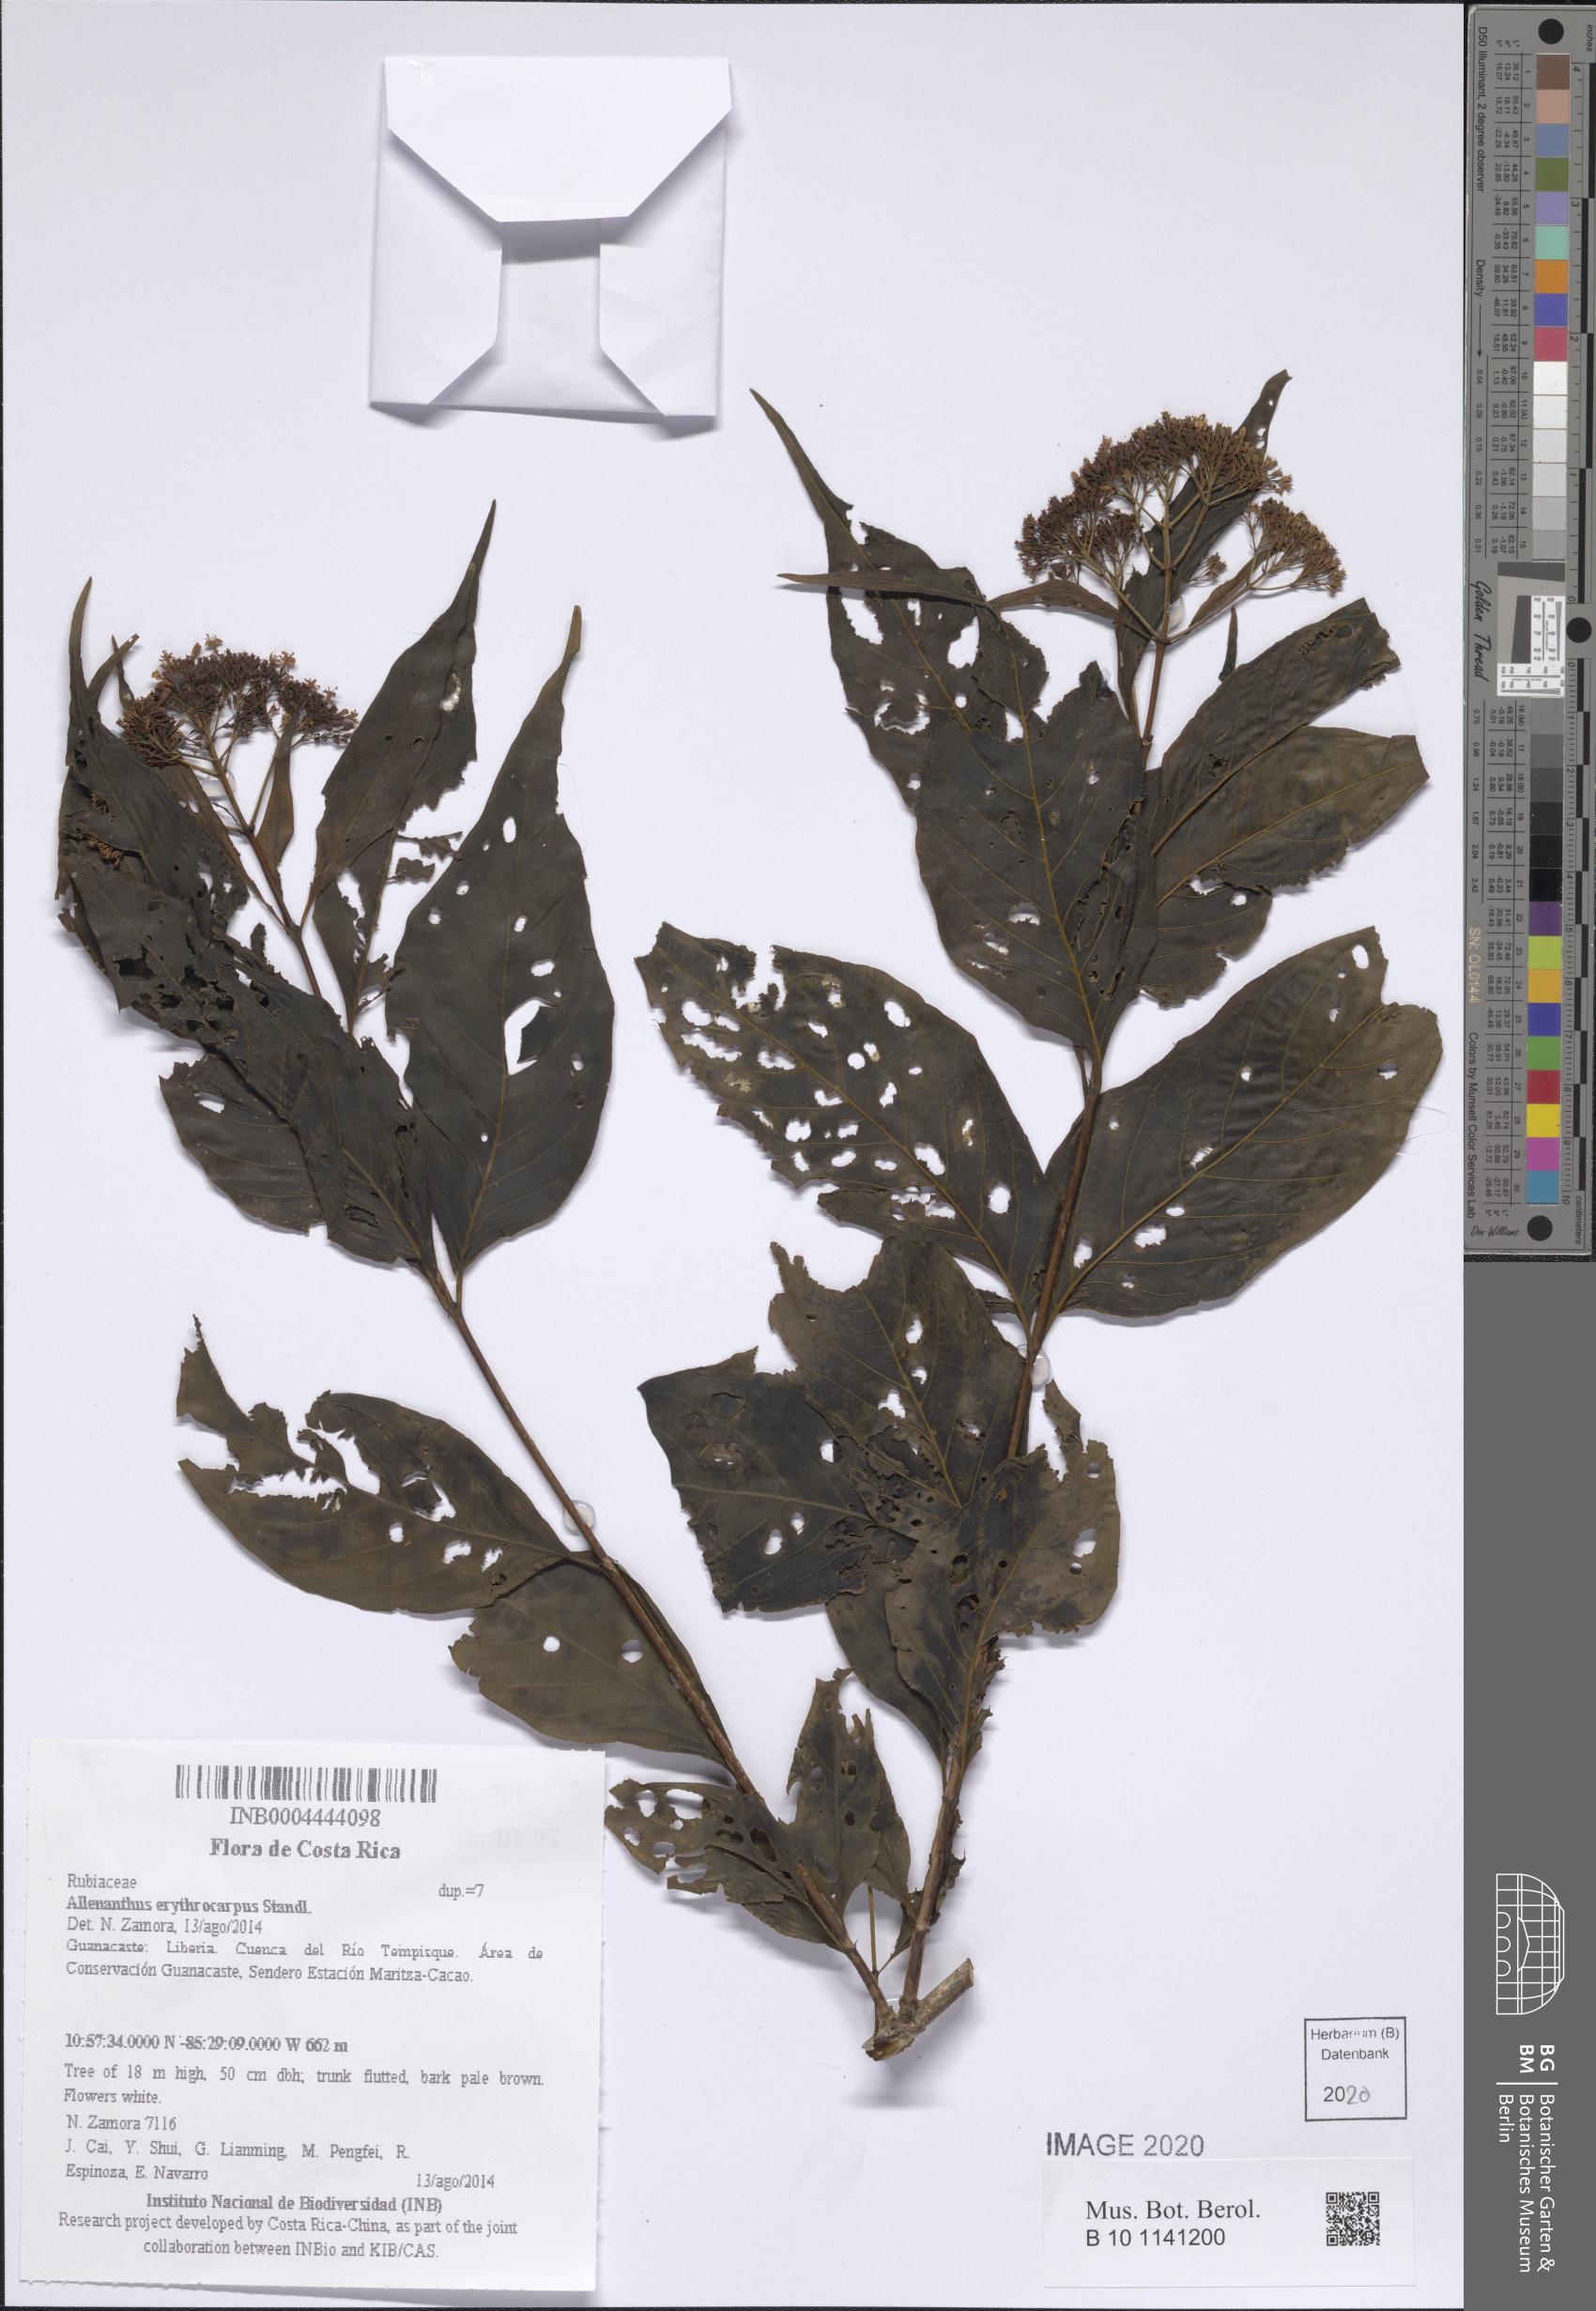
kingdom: Plantae
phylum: Tracheophyta
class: Magnoliopsida
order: Gentianales
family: Rubiaceae
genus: Machaonia
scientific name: Machaonia erythrocarpa
